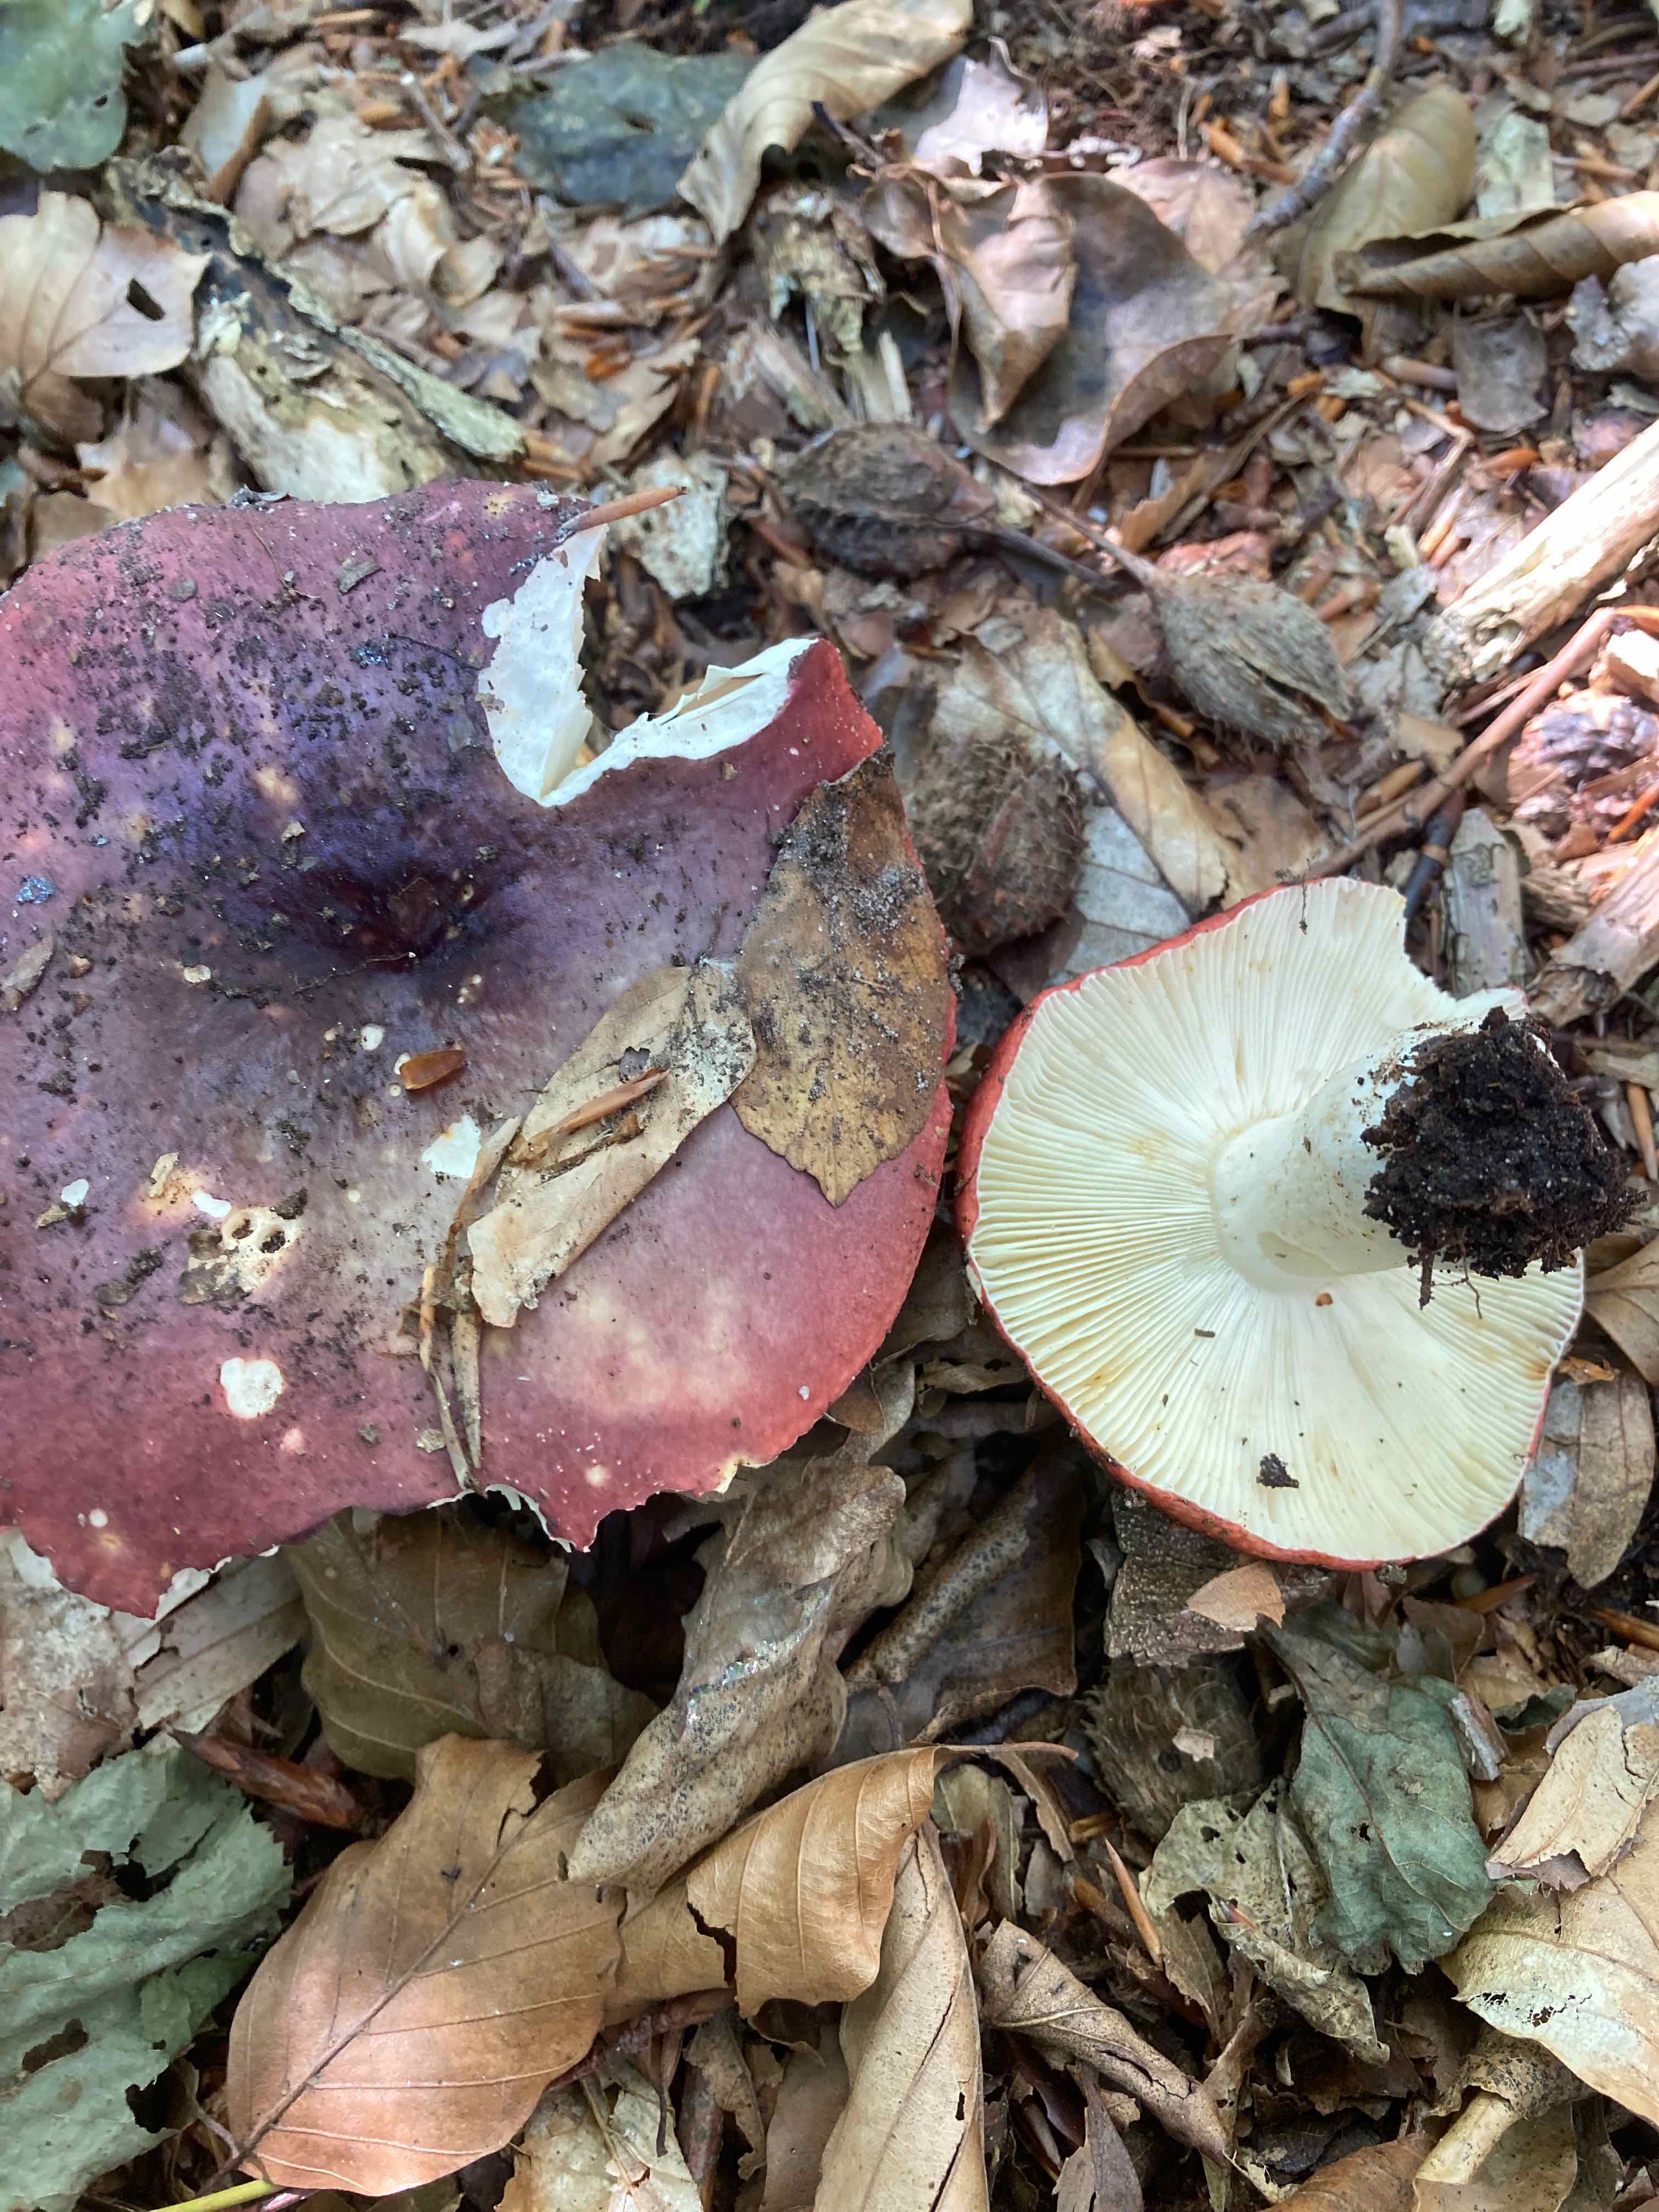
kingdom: Fungi
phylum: Basidiomycota
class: Agaricomycetes
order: Russulales
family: Russulaceae
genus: Russula
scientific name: Russula atropurpurea
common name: purpurbroget skørhat
